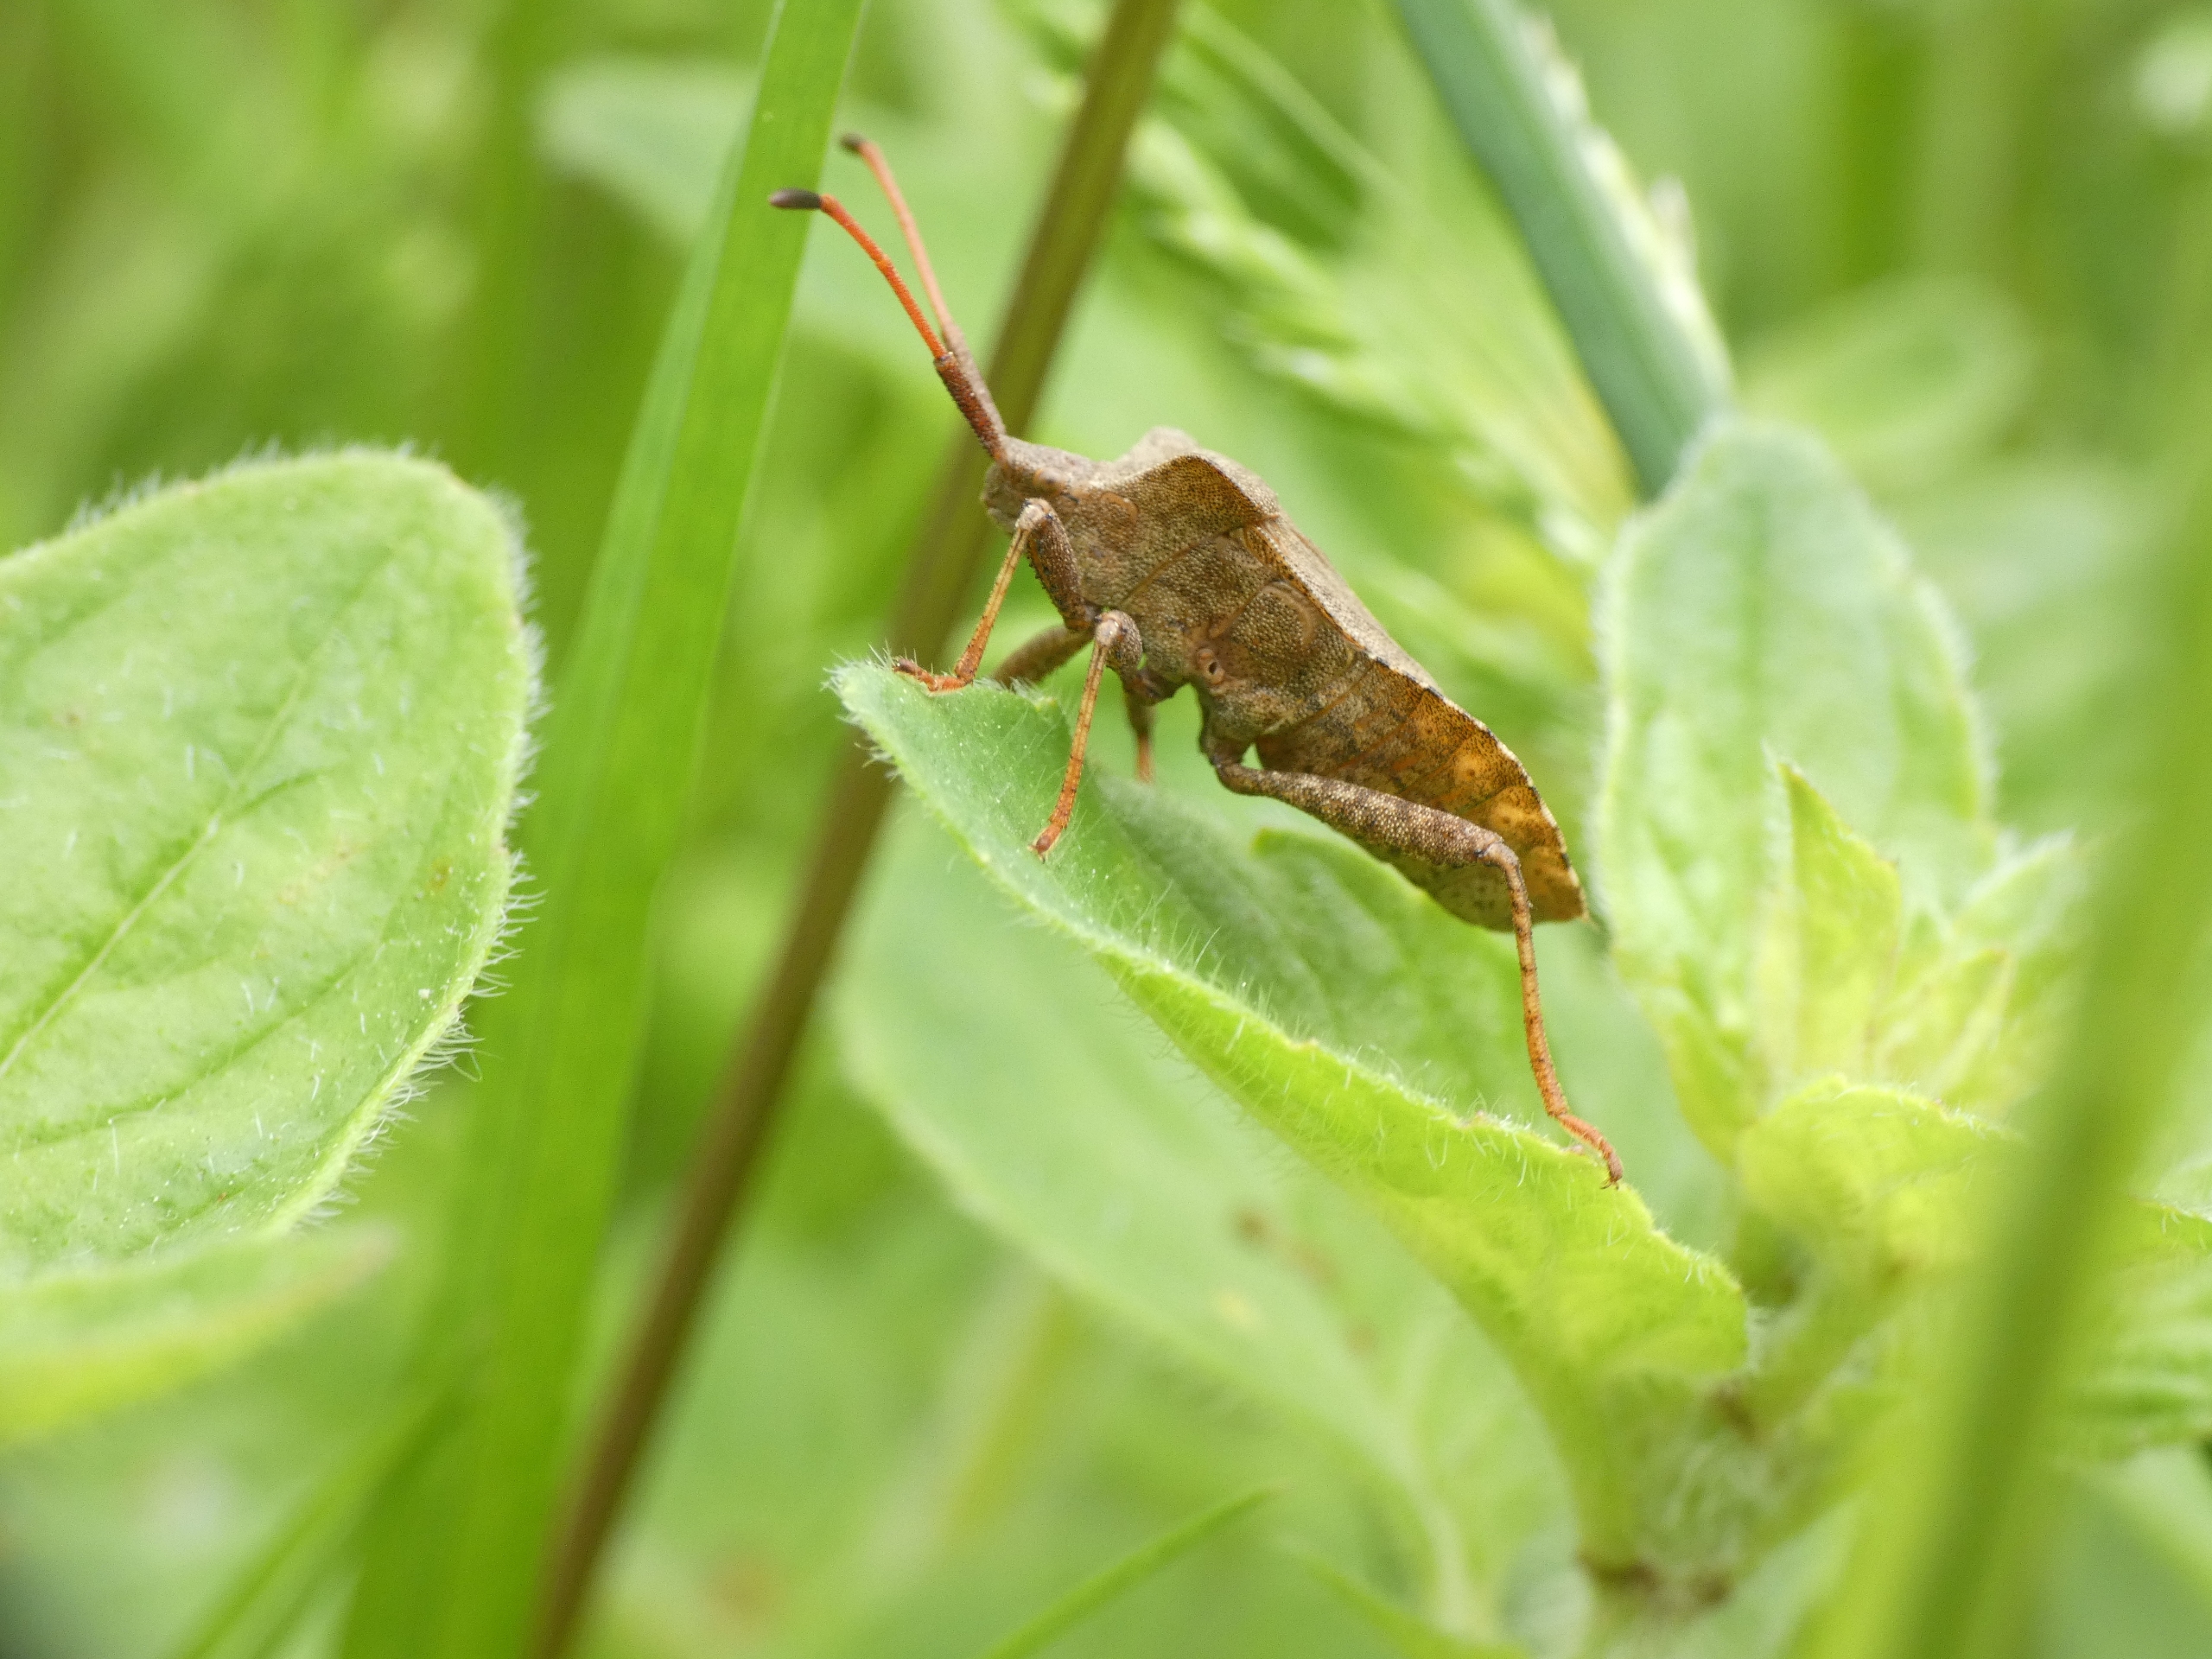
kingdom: Animalia
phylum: Arthropoda
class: Insecta
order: Hemiptera
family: Coreidae
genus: Coreus
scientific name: Coreus marginatus
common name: Skræppetæge
